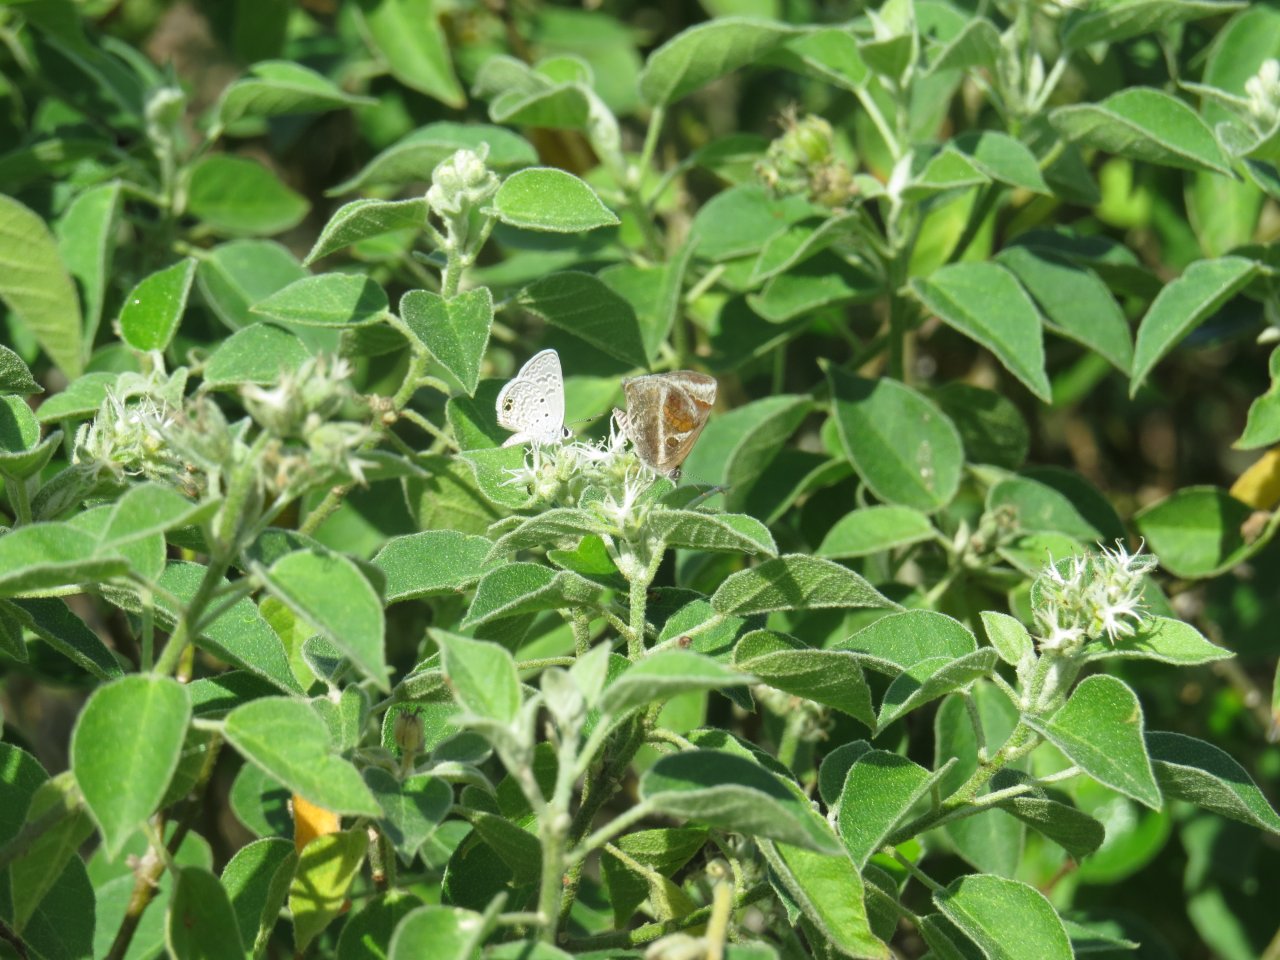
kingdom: Animalia
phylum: Arthropoda
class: Insecta
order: Lepidoptera
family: Lycaenidae
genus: Strymon
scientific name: Strymon bazochii
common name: Lantana Scrub-Hairstreak
